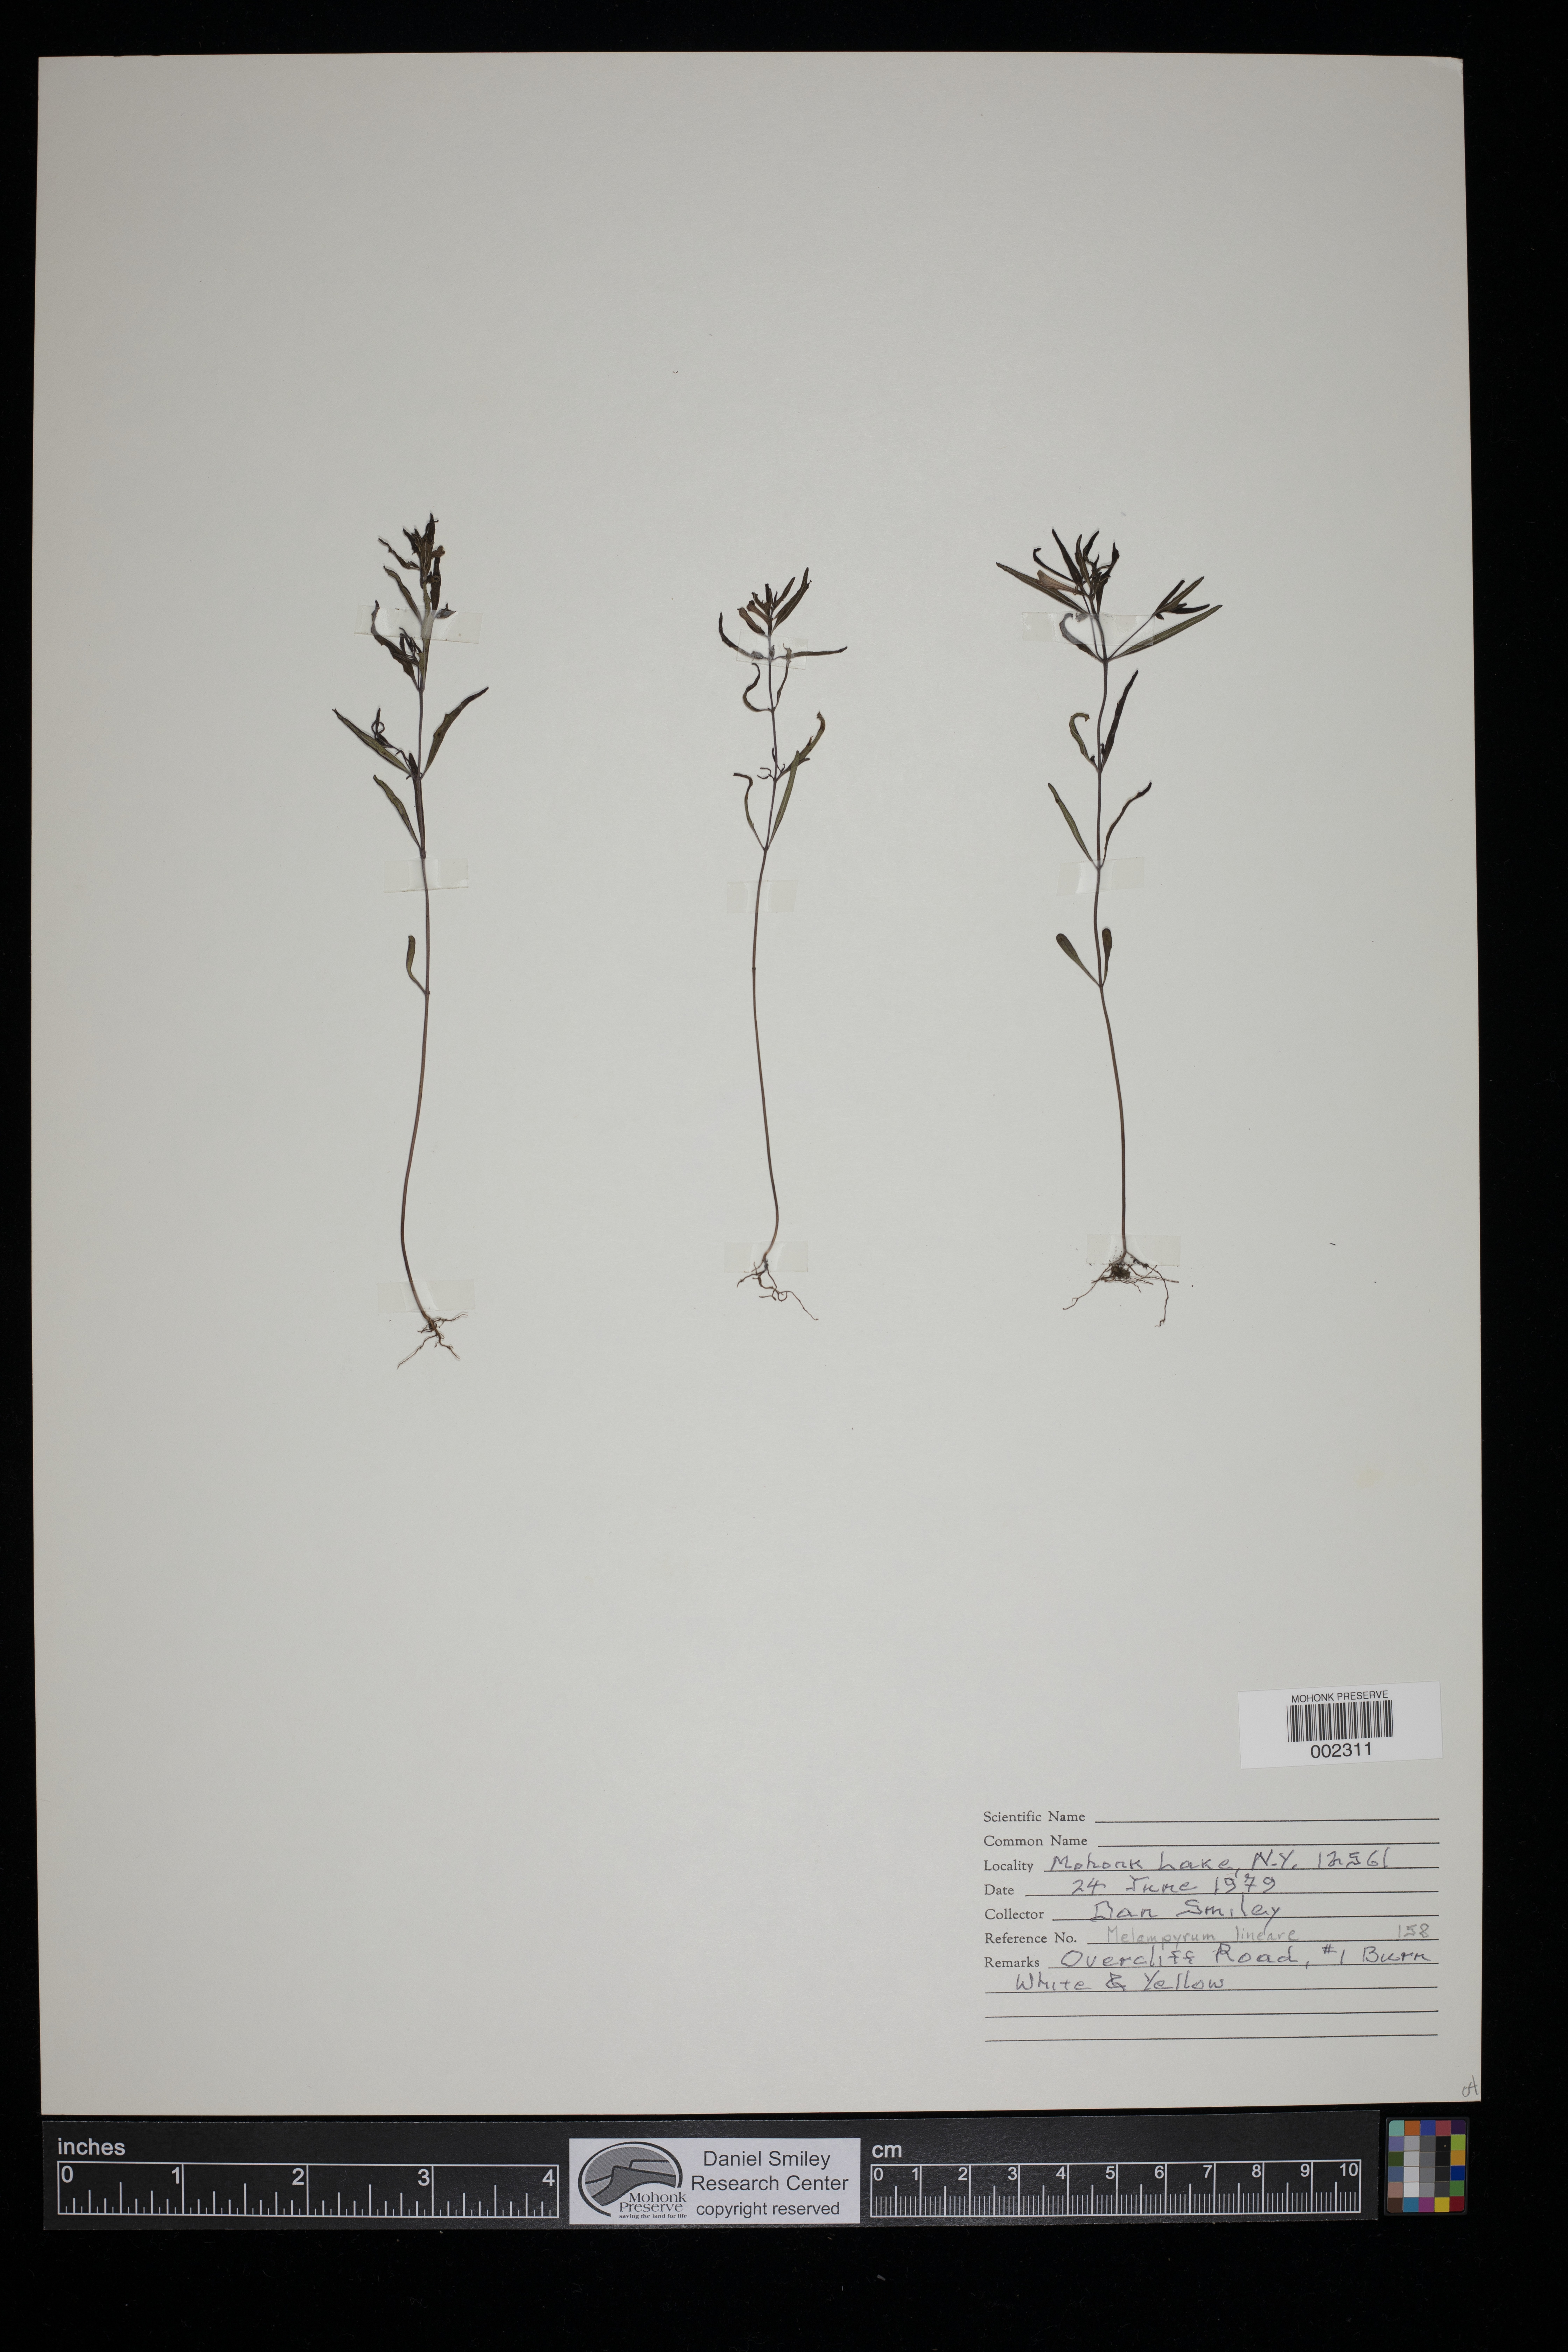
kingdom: Plantae
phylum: Tracheophyta
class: Magnoliopsida
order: Lamiales
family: Orobanchaceae
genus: Melampyrum
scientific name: Melampyrum lineare
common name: American cow-wheat
